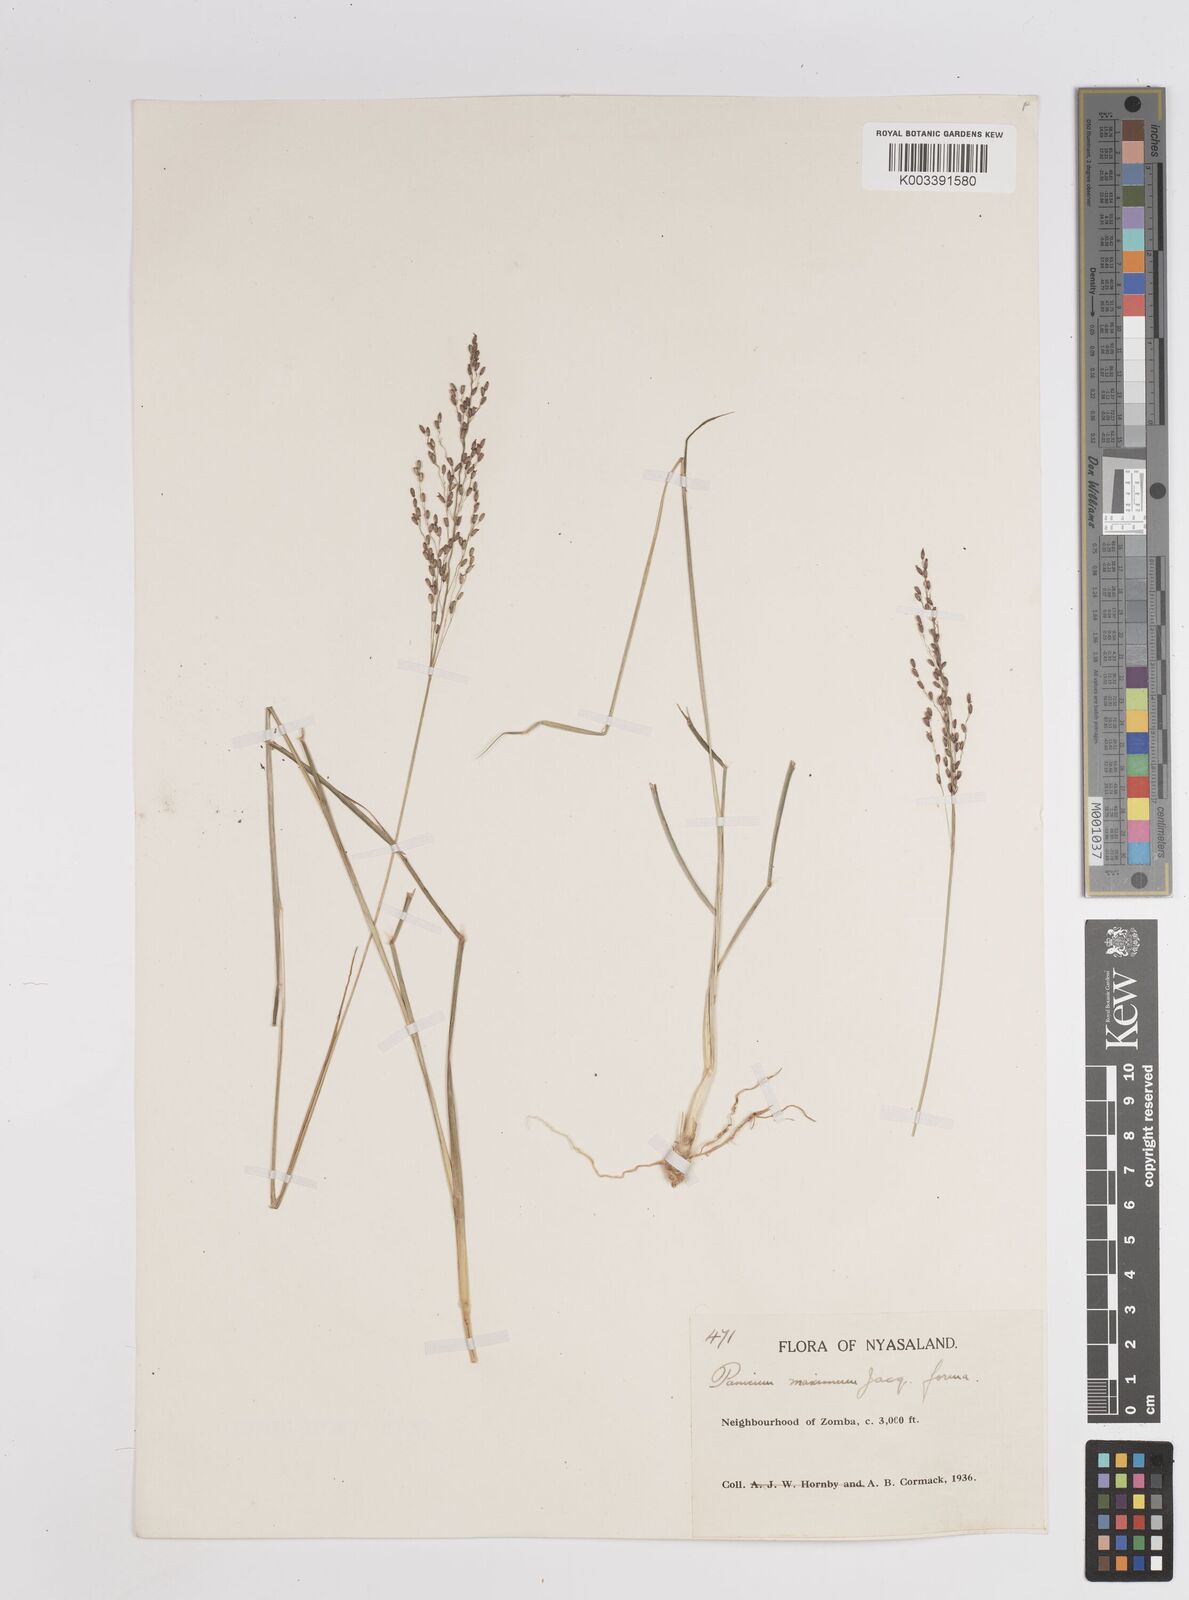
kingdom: Plantae
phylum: Tracheophyta
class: Liliopsida
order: Poales
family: Poaceae
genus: Megathyrsus
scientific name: Megathyrsus maximus
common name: Guineagrass
